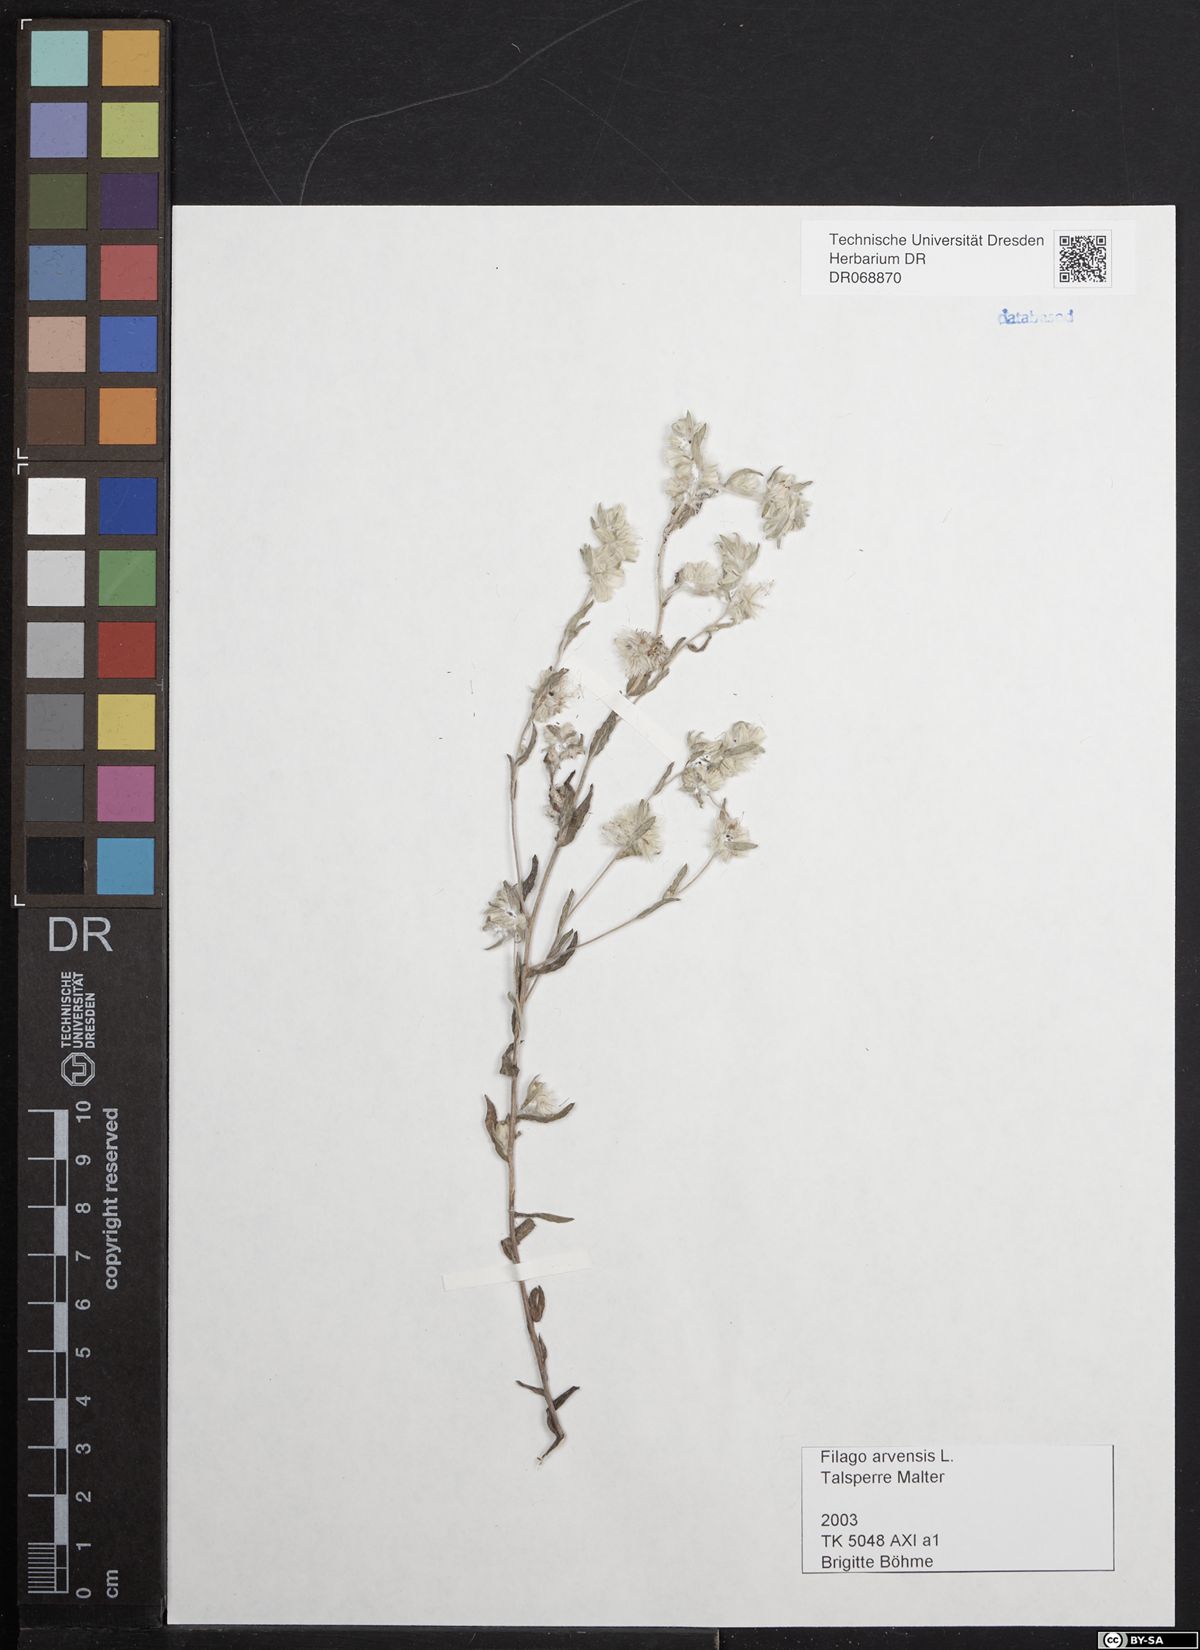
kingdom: Plantae
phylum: Tracheophyta
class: Magnoliopsida
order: Asterales
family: Asteraceae
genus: Filago
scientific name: Filago arvensis
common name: Field cudweed
